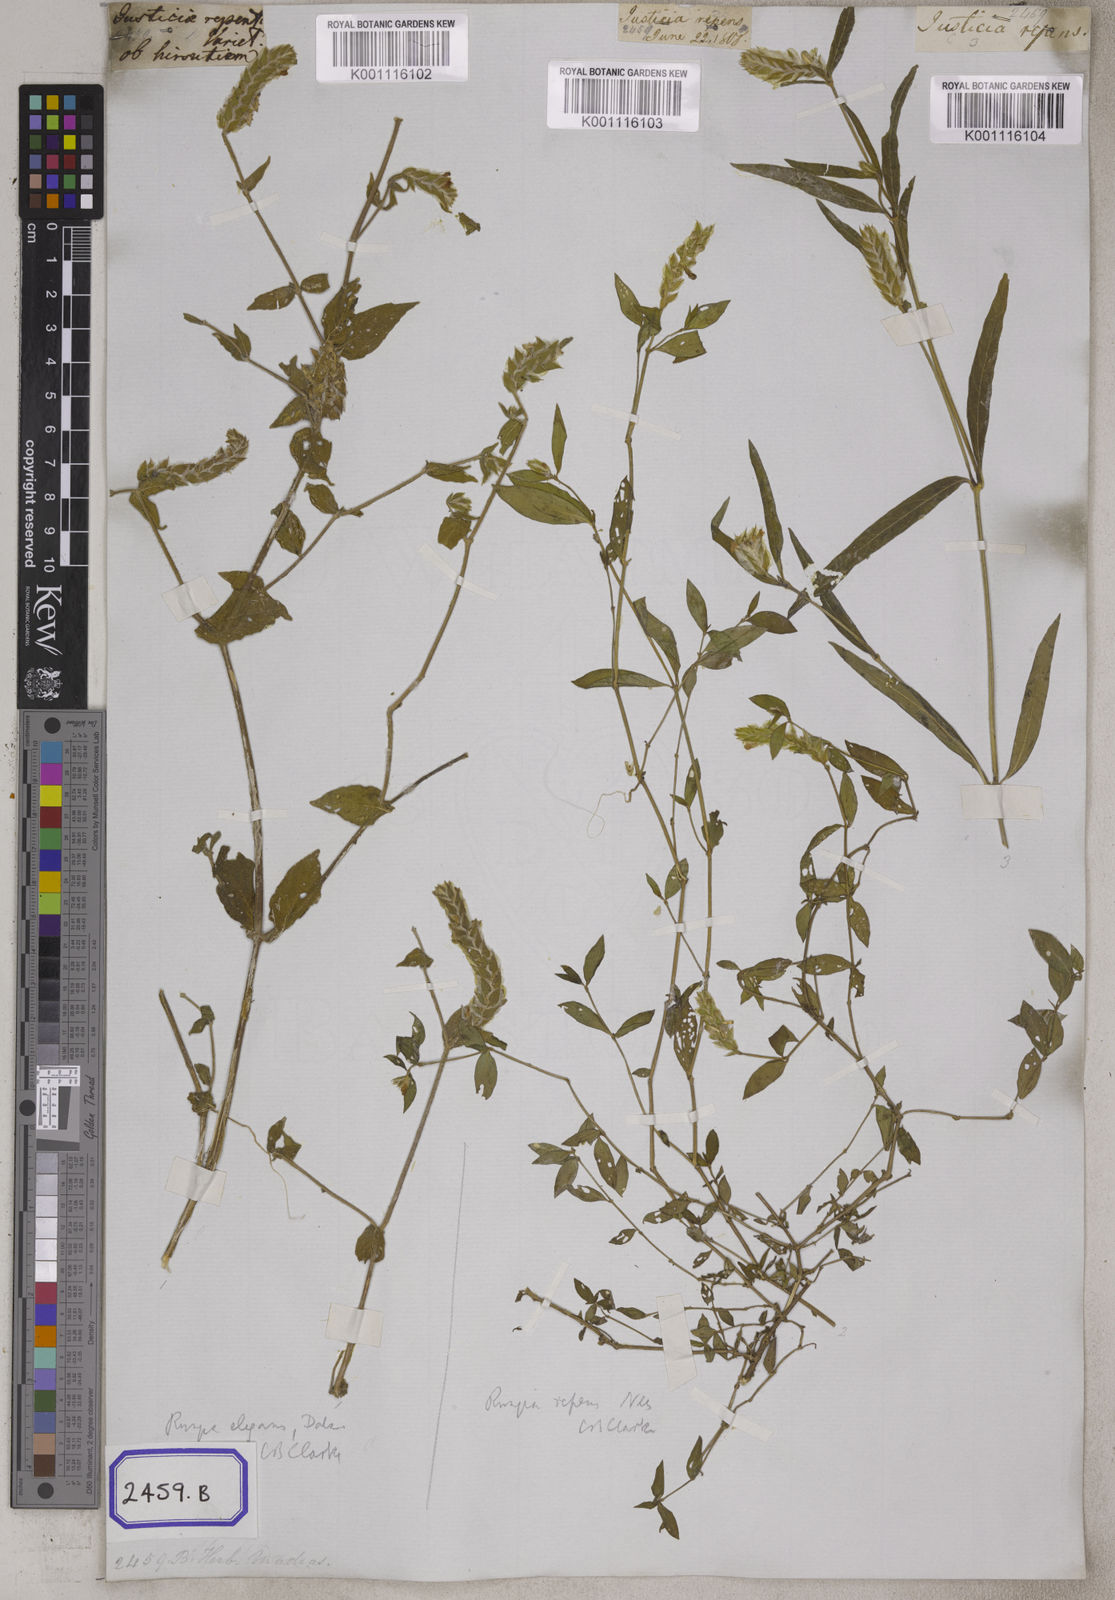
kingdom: Plantae
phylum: Tracheophyta
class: Magnoliopsida
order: Lamiales
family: Acanthaceae
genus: Justicia
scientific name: Justicia
